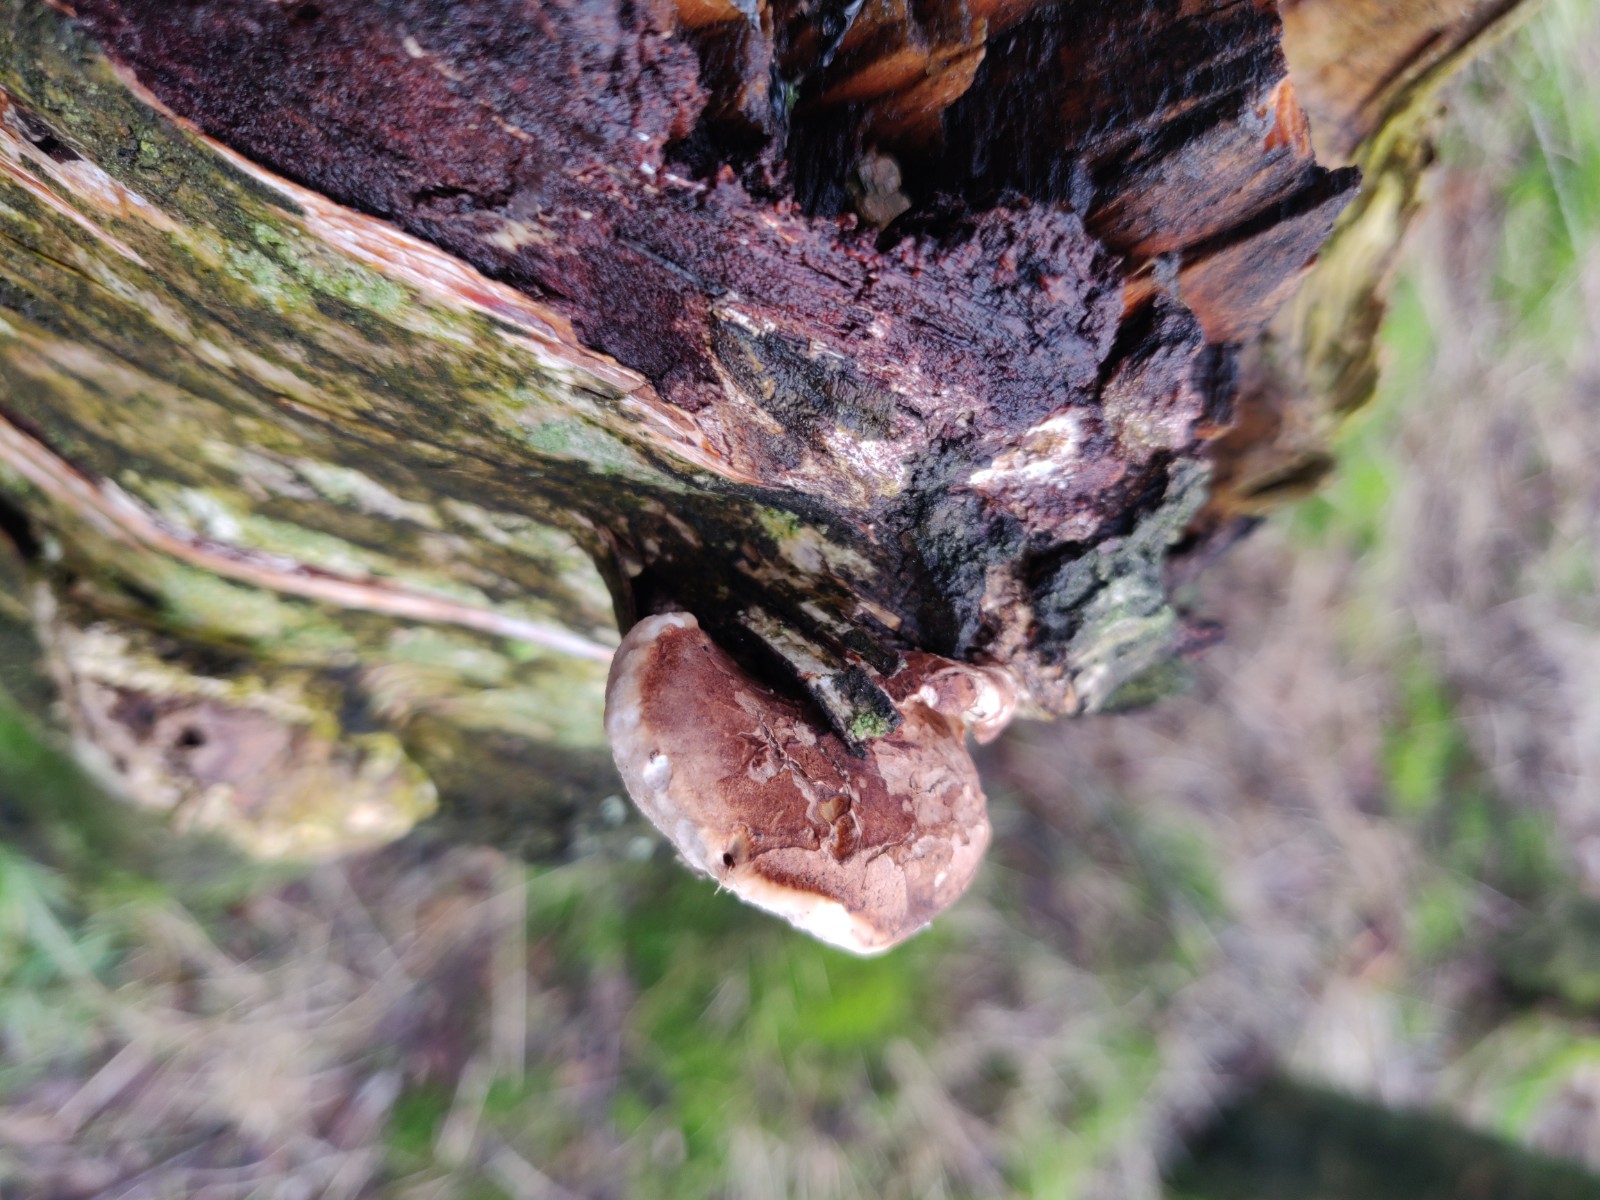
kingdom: Fungi
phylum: Basidiomycota
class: Agaricomycetes
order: Polyporales
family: Fomitopsidaceae
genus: Fomitopsis
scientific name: Fomitopsis betulina
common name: birkeporesvamp
